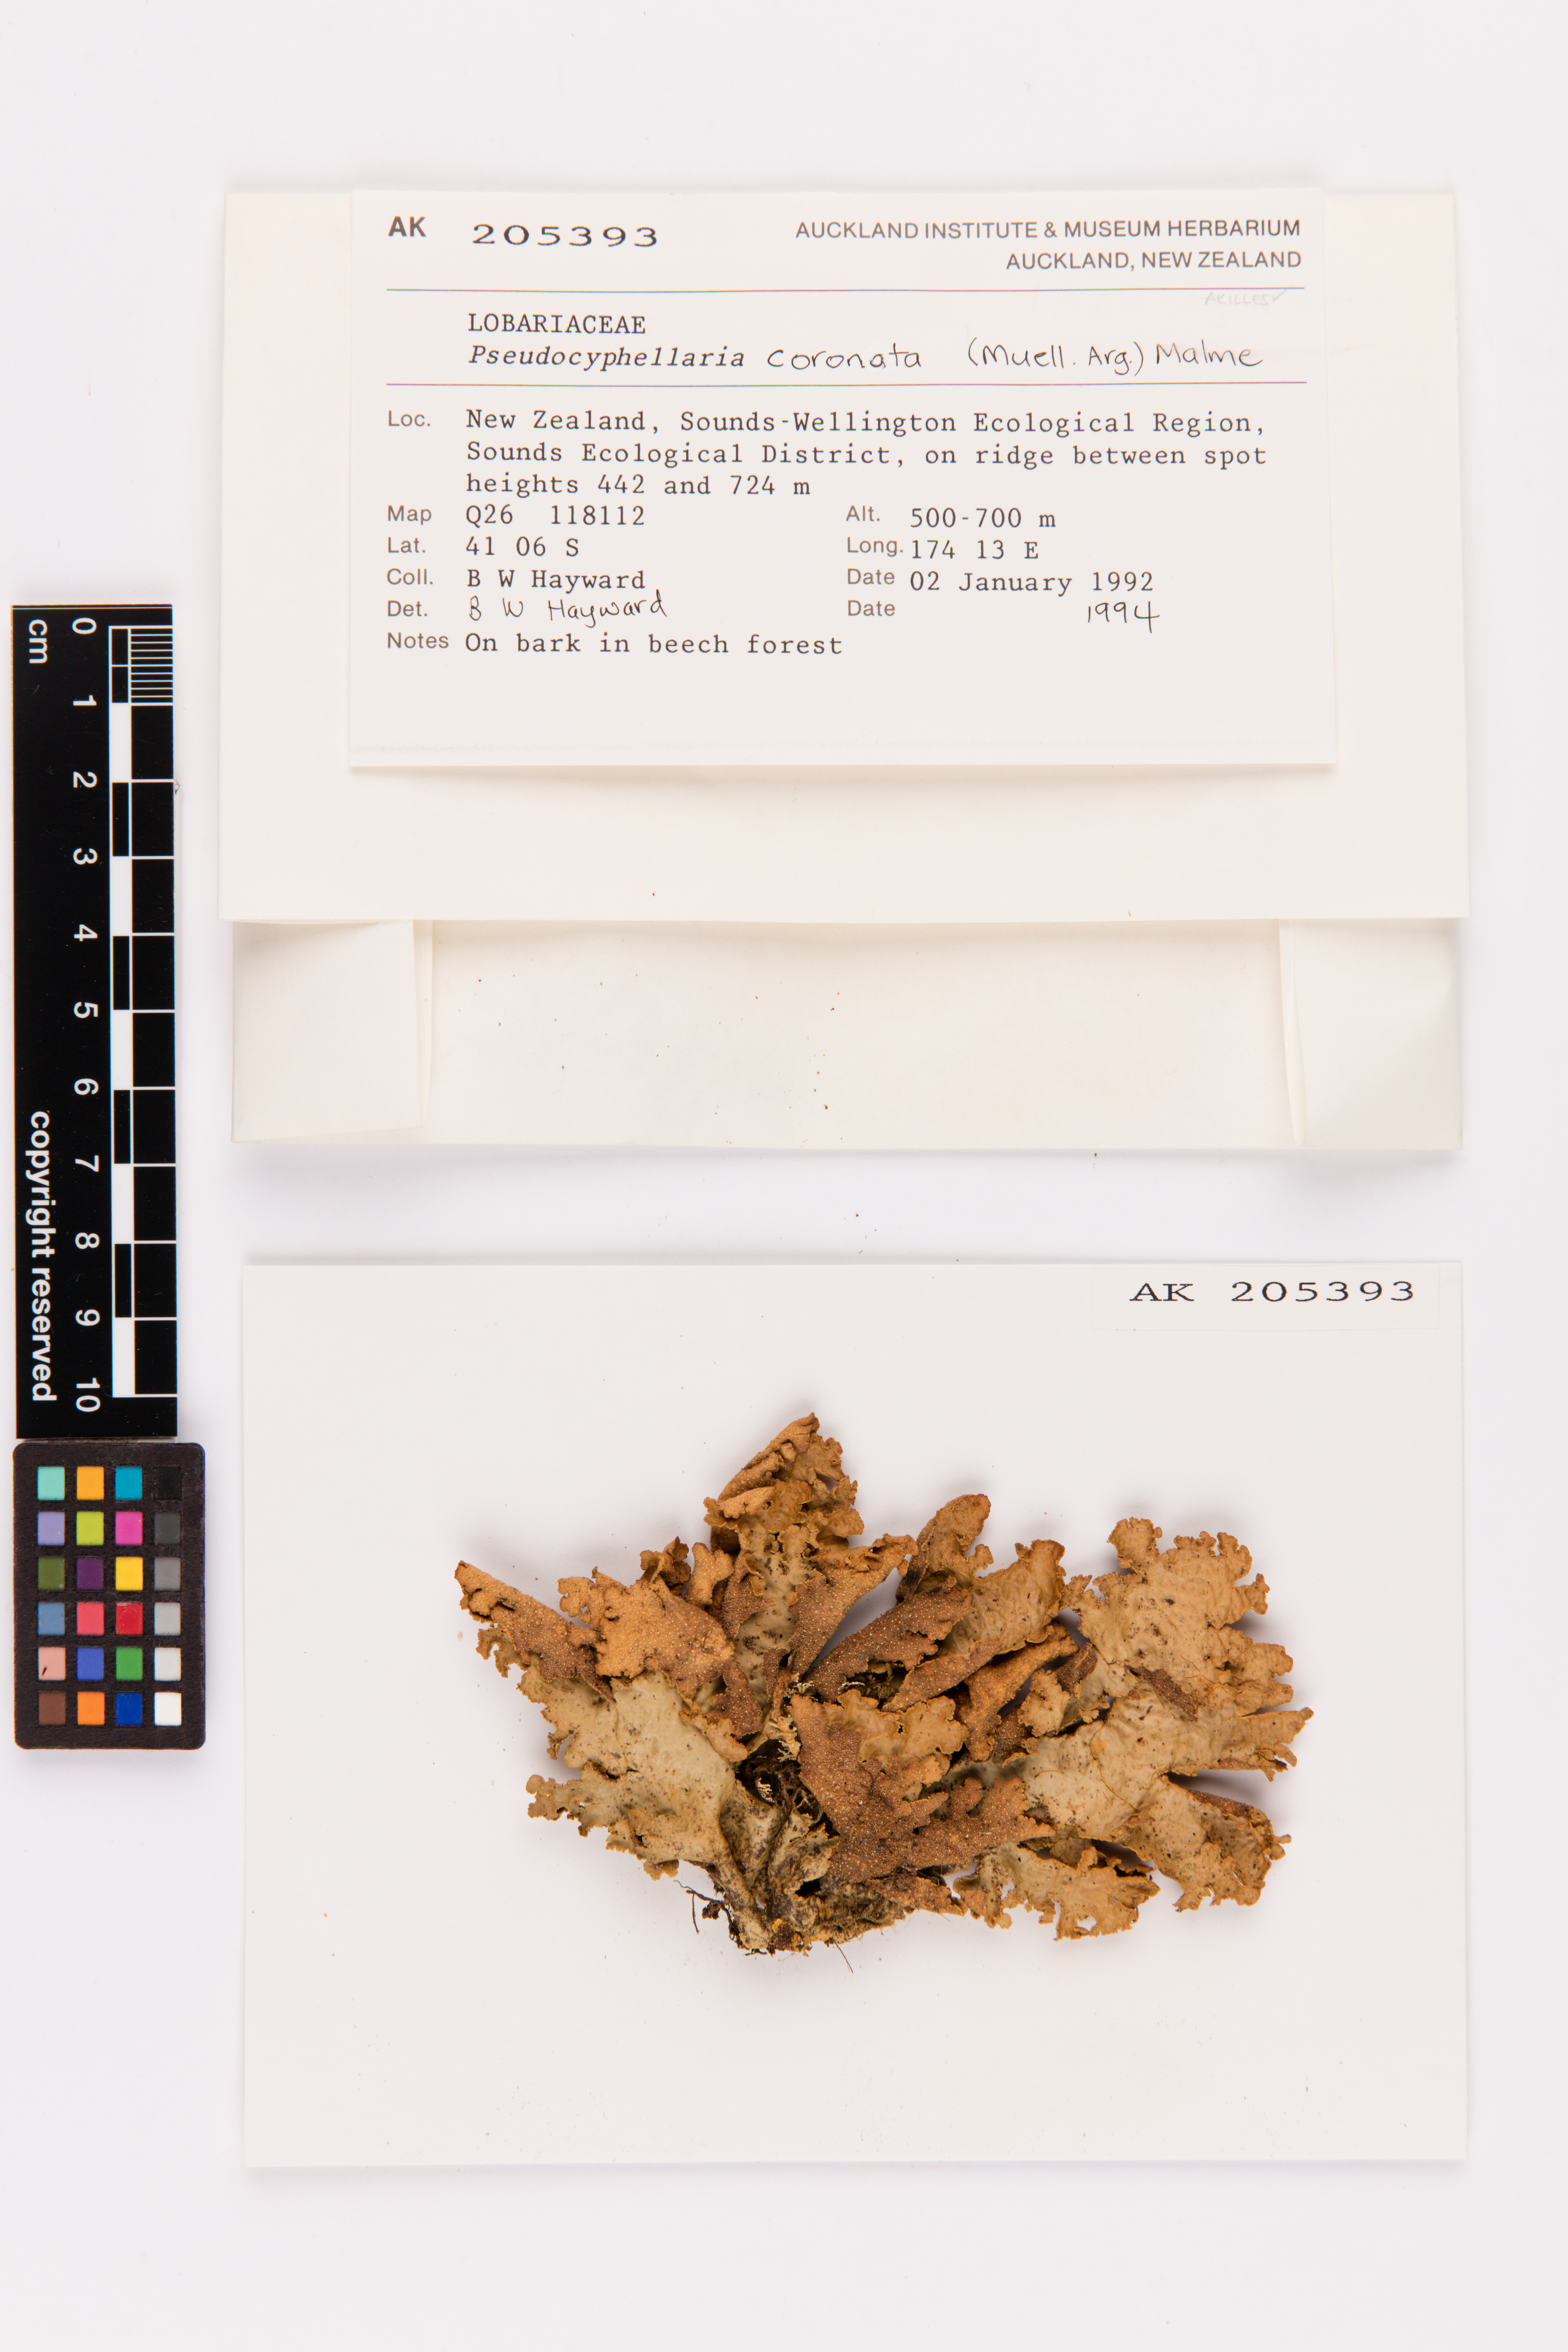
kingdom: Fungi
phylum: Ascomycota
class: Lecanoromycetes
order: Peltigerales
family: Lobariaceae
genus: Yarrumia
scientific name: Yarrumia coronata
